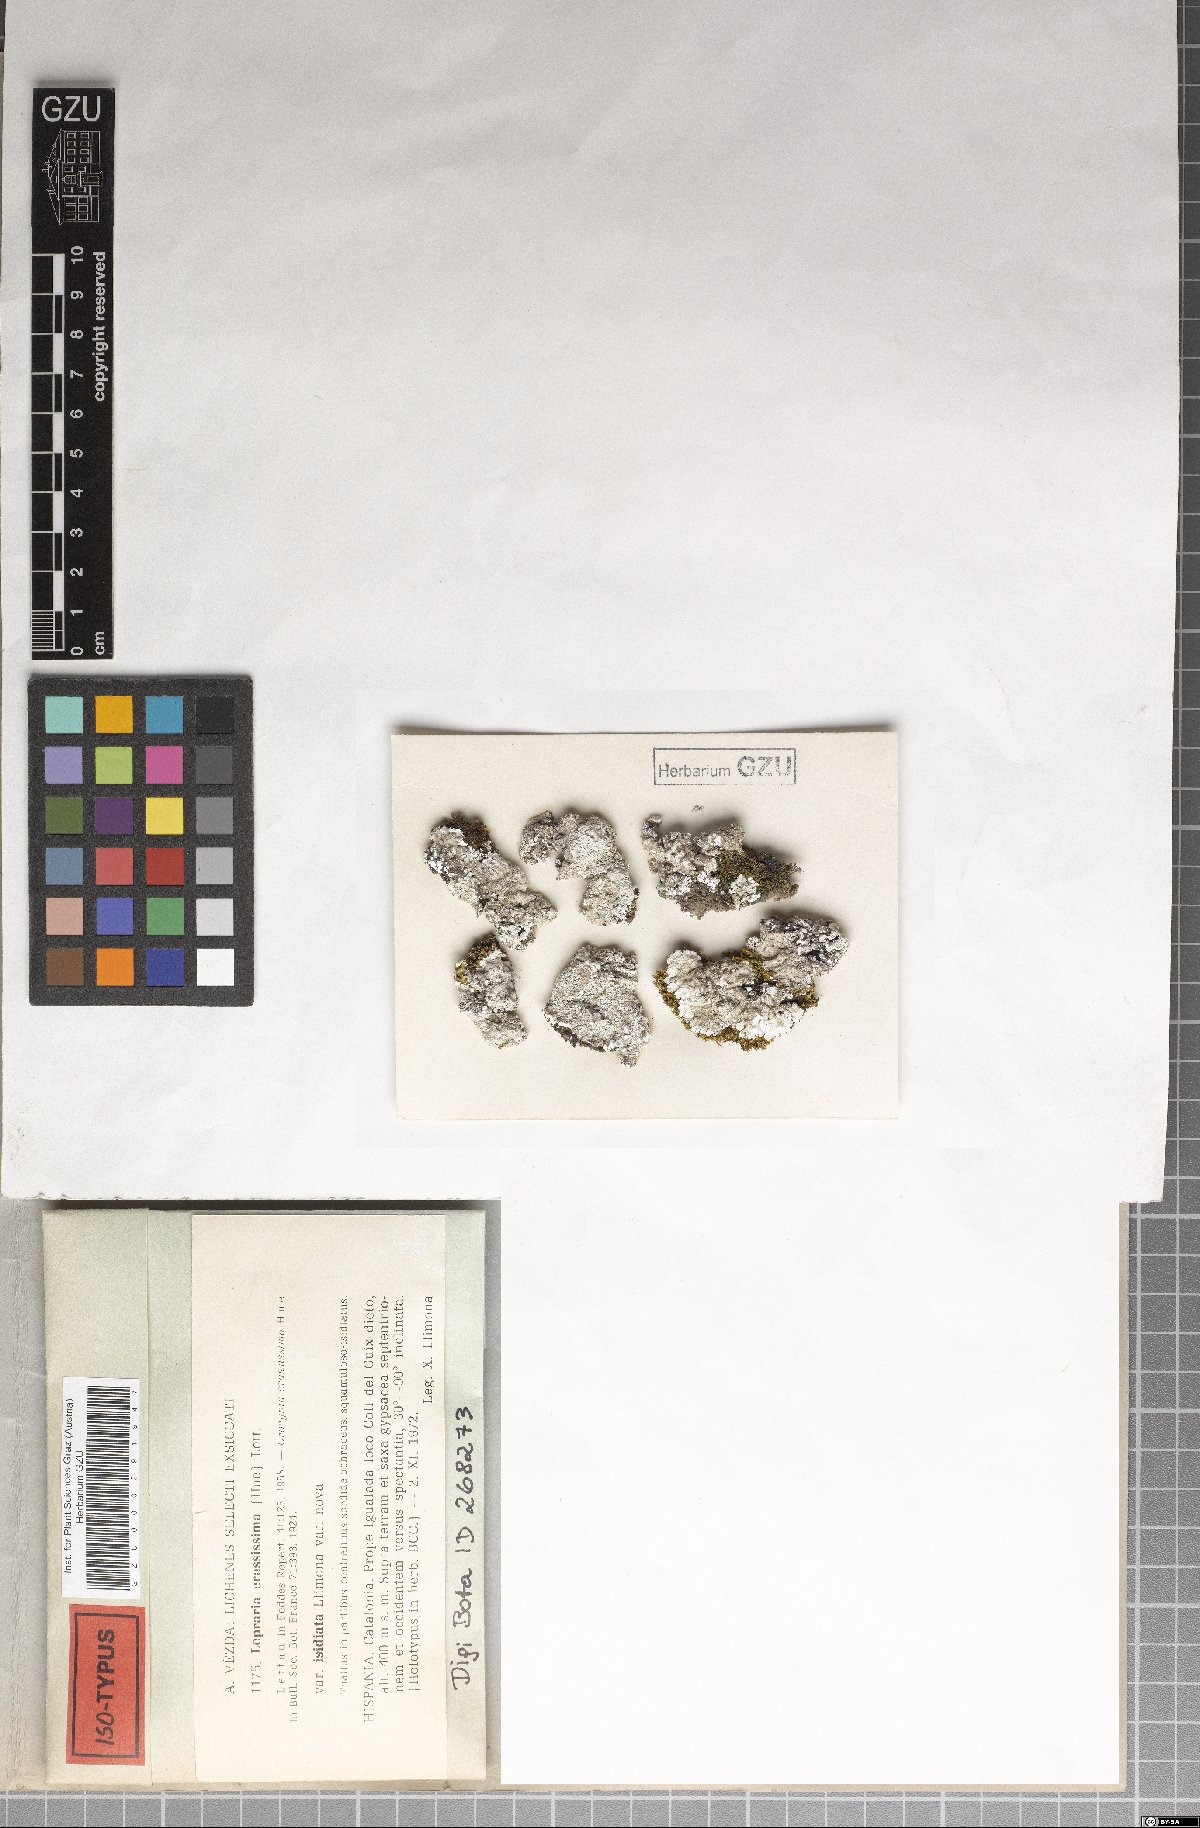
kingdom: Fungi
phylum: Ascomycota
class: Lecanoromycetes
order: Lecanorales
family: Stereocaulaceae
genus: Lepraria
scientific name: Lepraria isidiata
